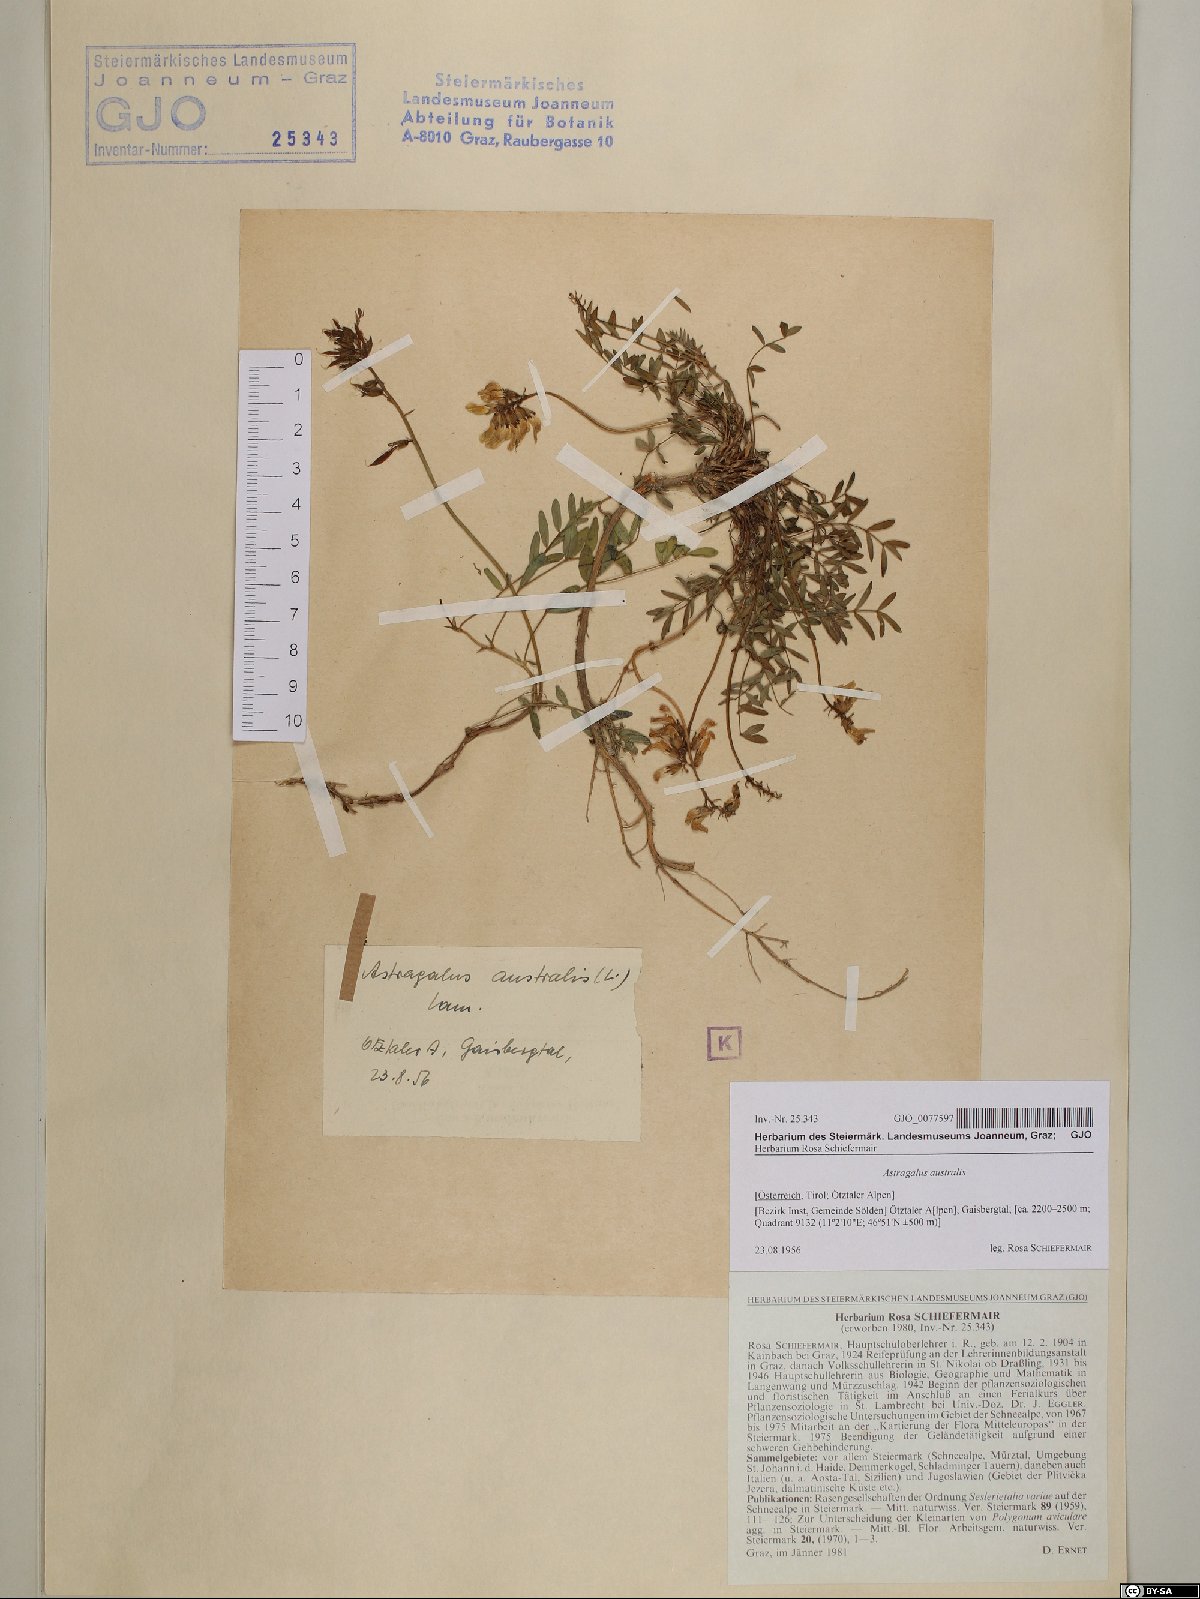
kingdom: Plantae
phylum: Tracheophyta
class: Magnoliopsida
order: Fabales
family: Fabaceae
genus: Astragalus
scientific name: Astragalus australis
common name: Indian milk-vetch
